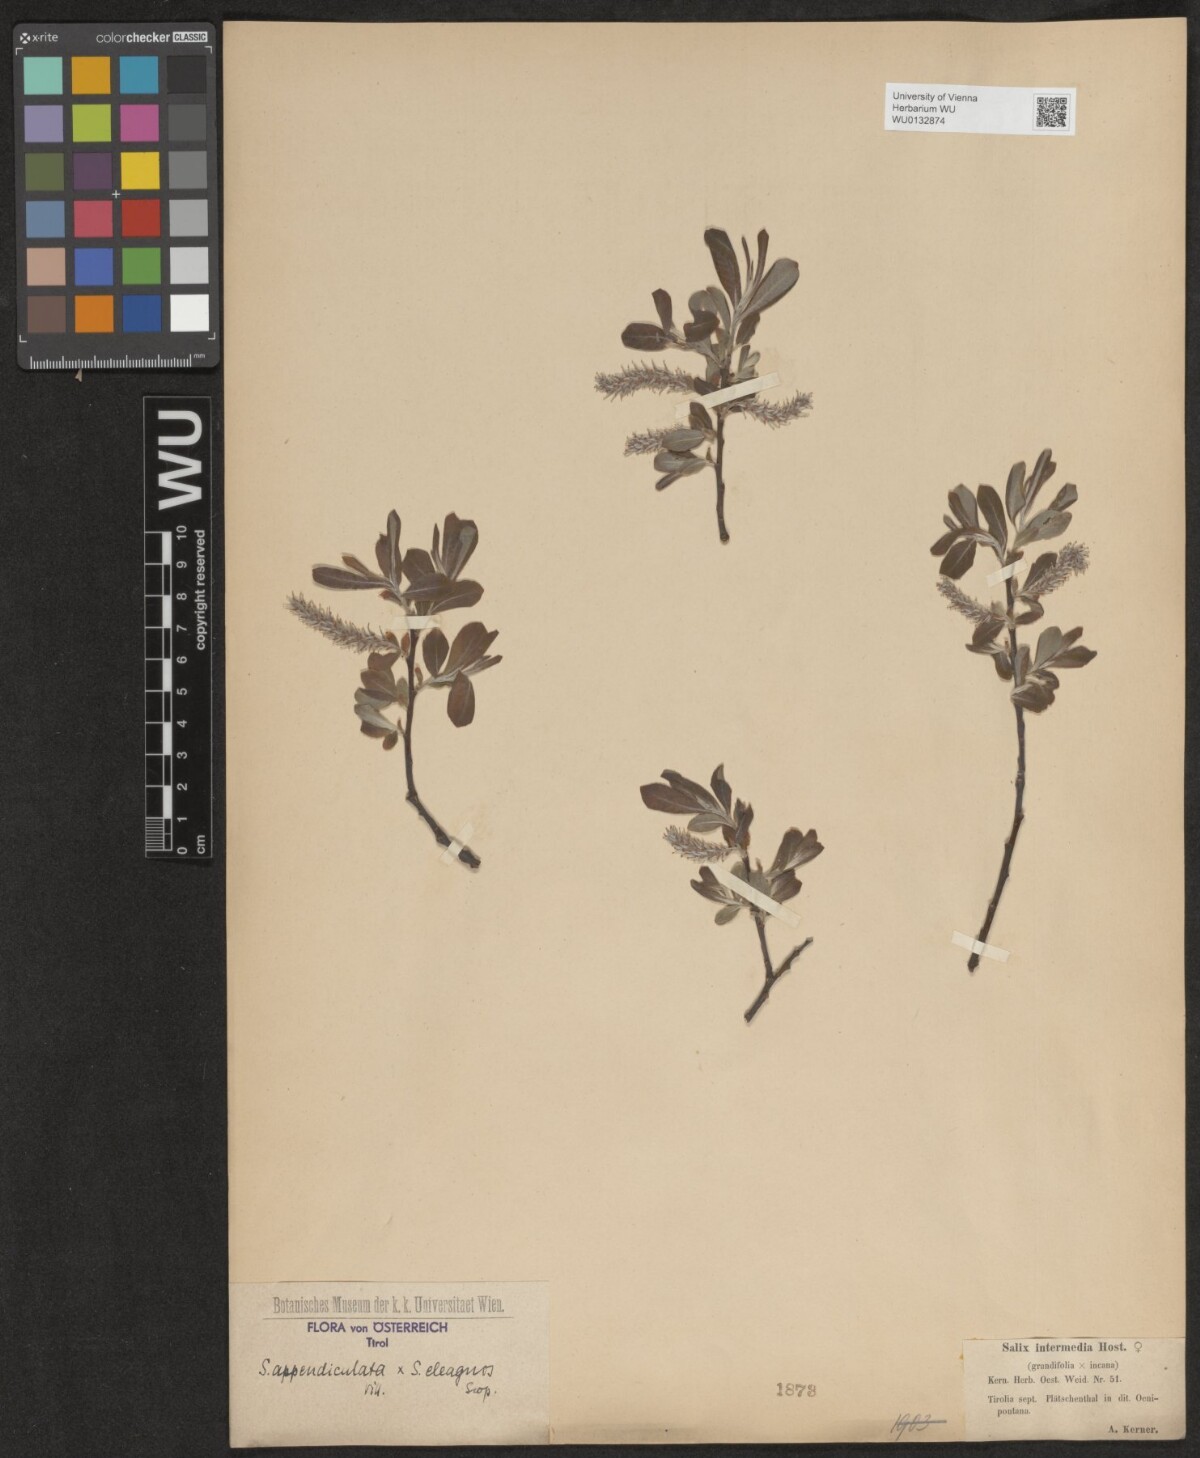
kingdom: Plantae
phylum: Tracheophyta
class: Magnoliopsida
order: Malpighiales
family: Salicaceae
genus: Salix
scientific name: Salix intermedia
